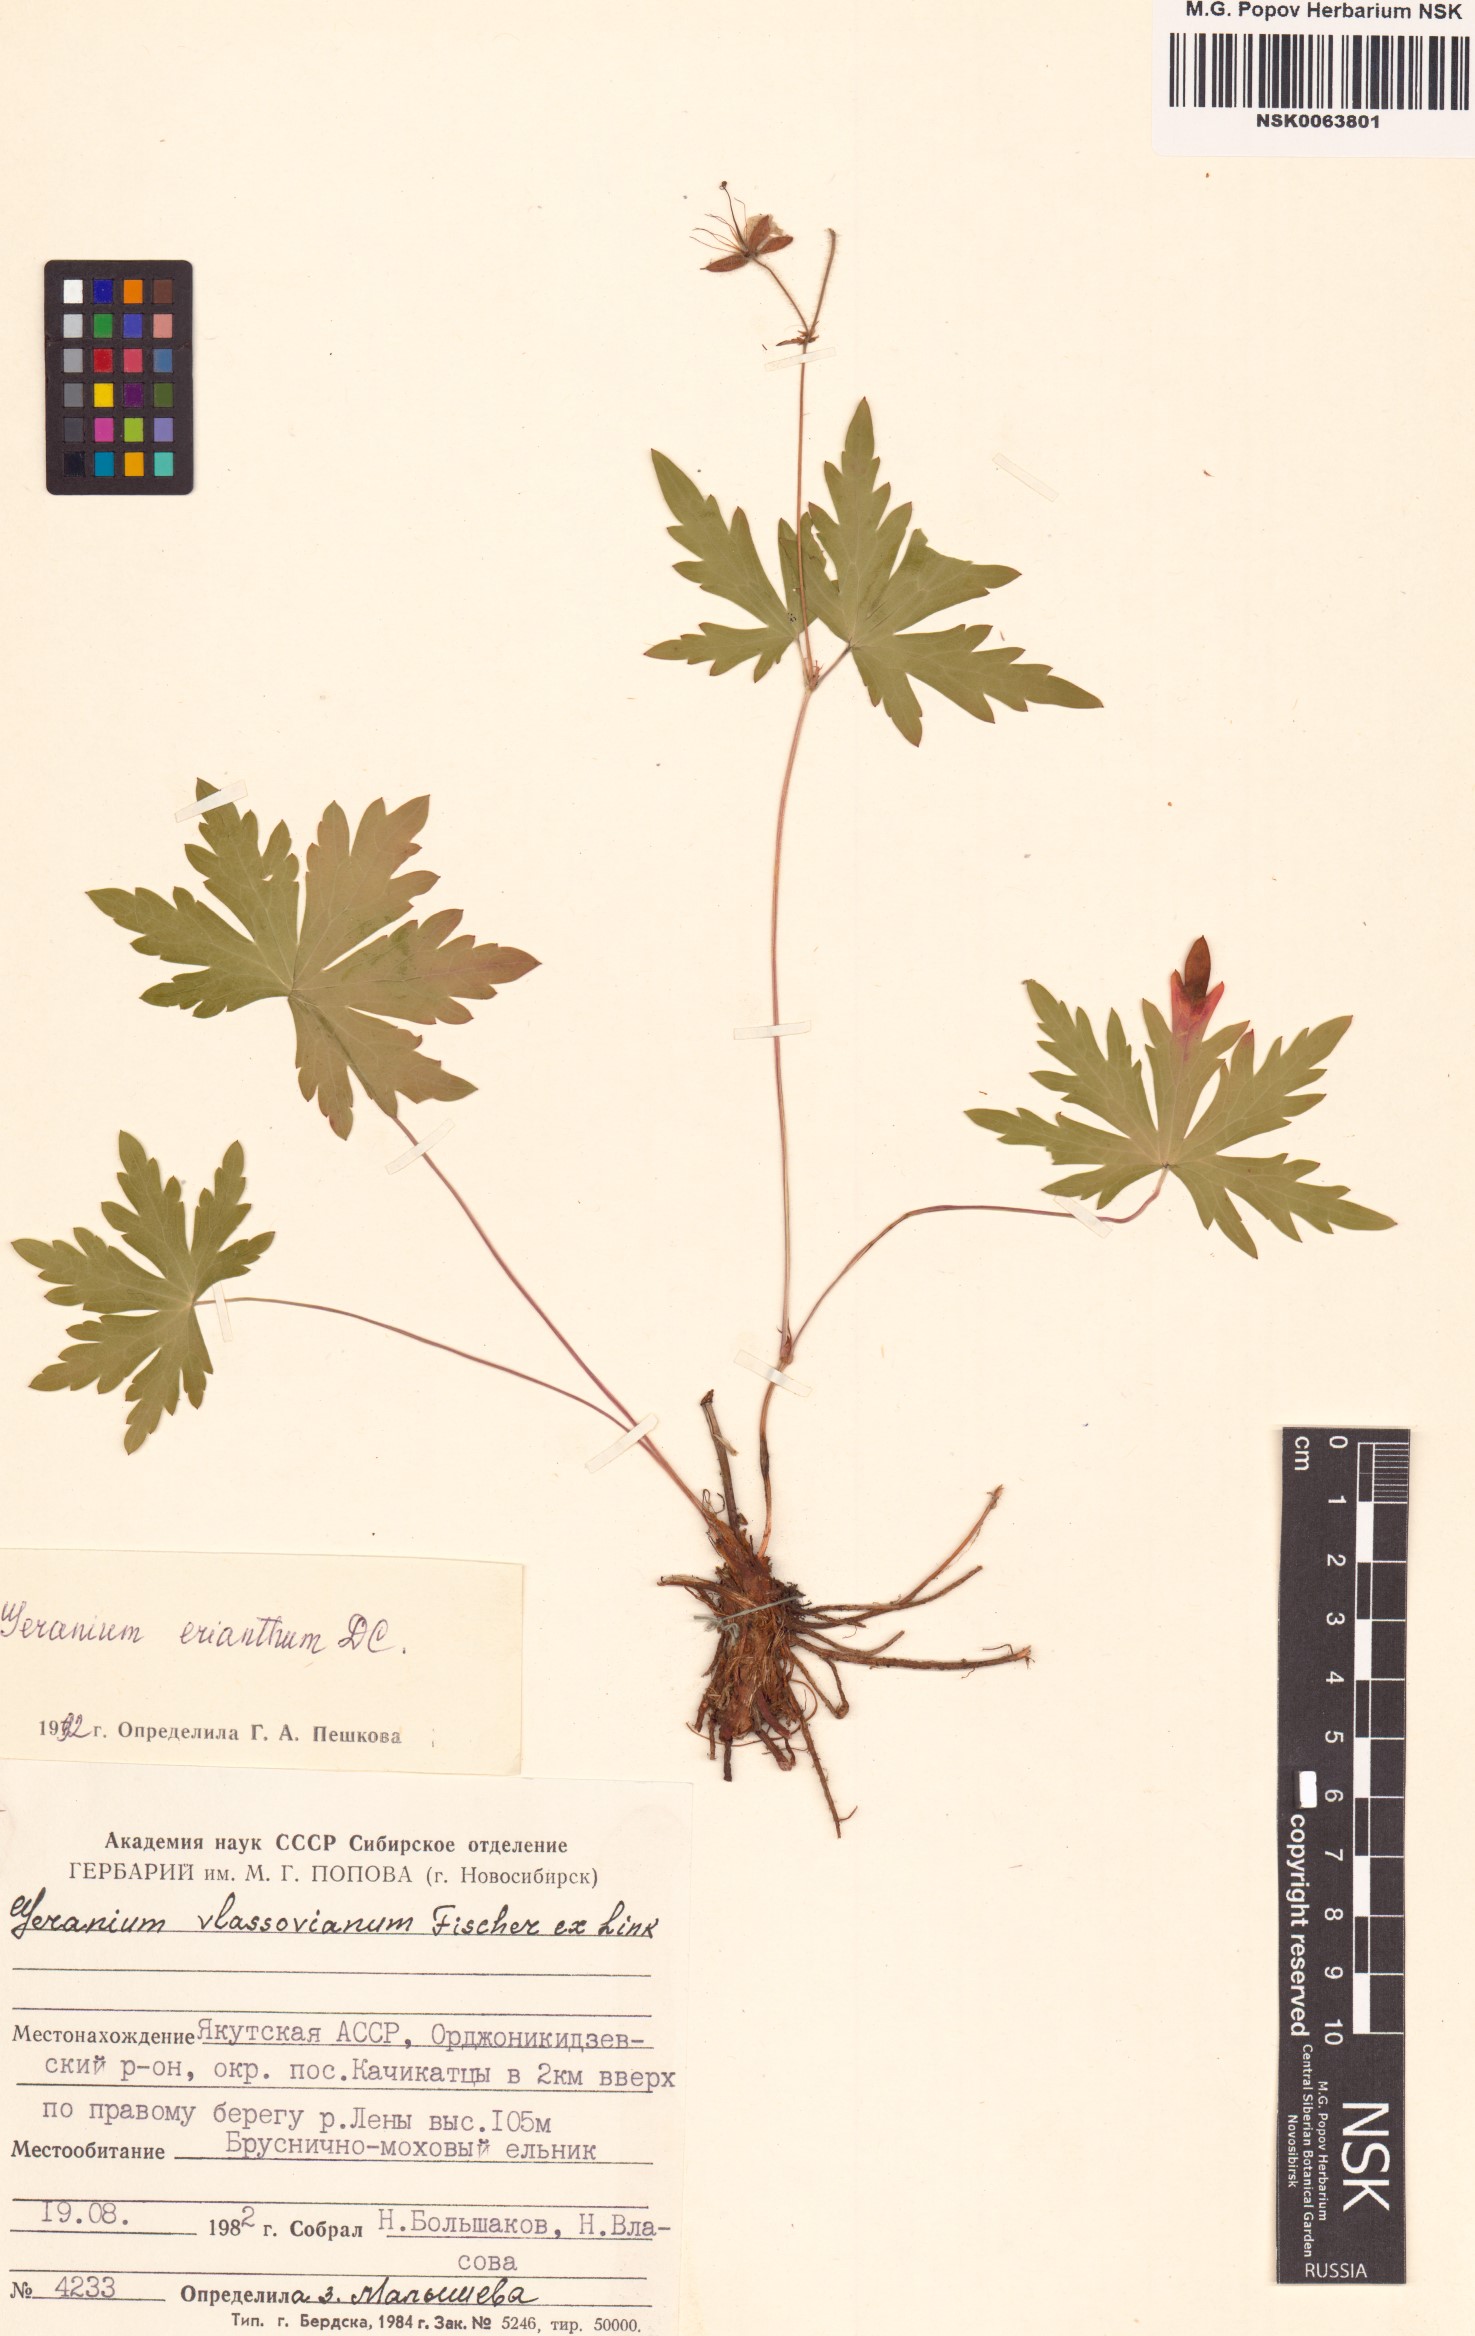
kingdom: Plantae
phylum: Tracheophyta
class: Magnoliopsida
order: Geraniales
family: Geraniaceae
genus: Geranium
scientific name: Geranium erianthum
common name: Northern crane's-bill
